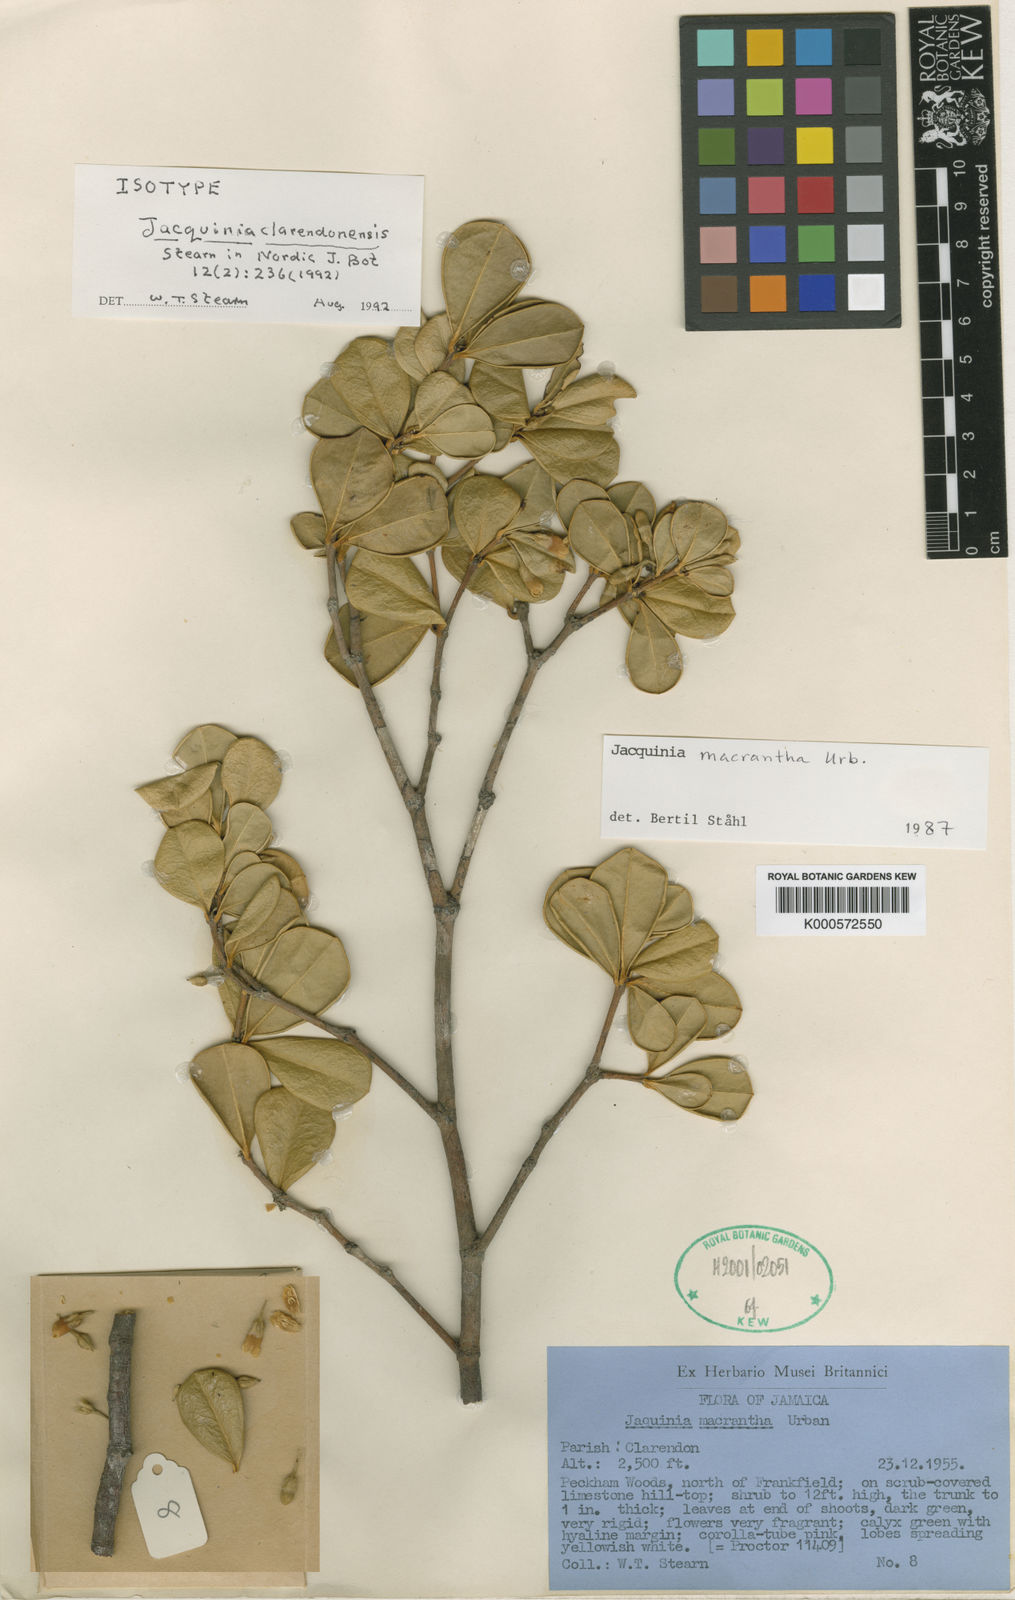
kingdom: Plantae
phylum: Tracheophyta
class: Magnoliopsida
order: Ericales
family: Primulaceae
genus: Jacquinia
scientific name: Jacquinia clarendonensis
